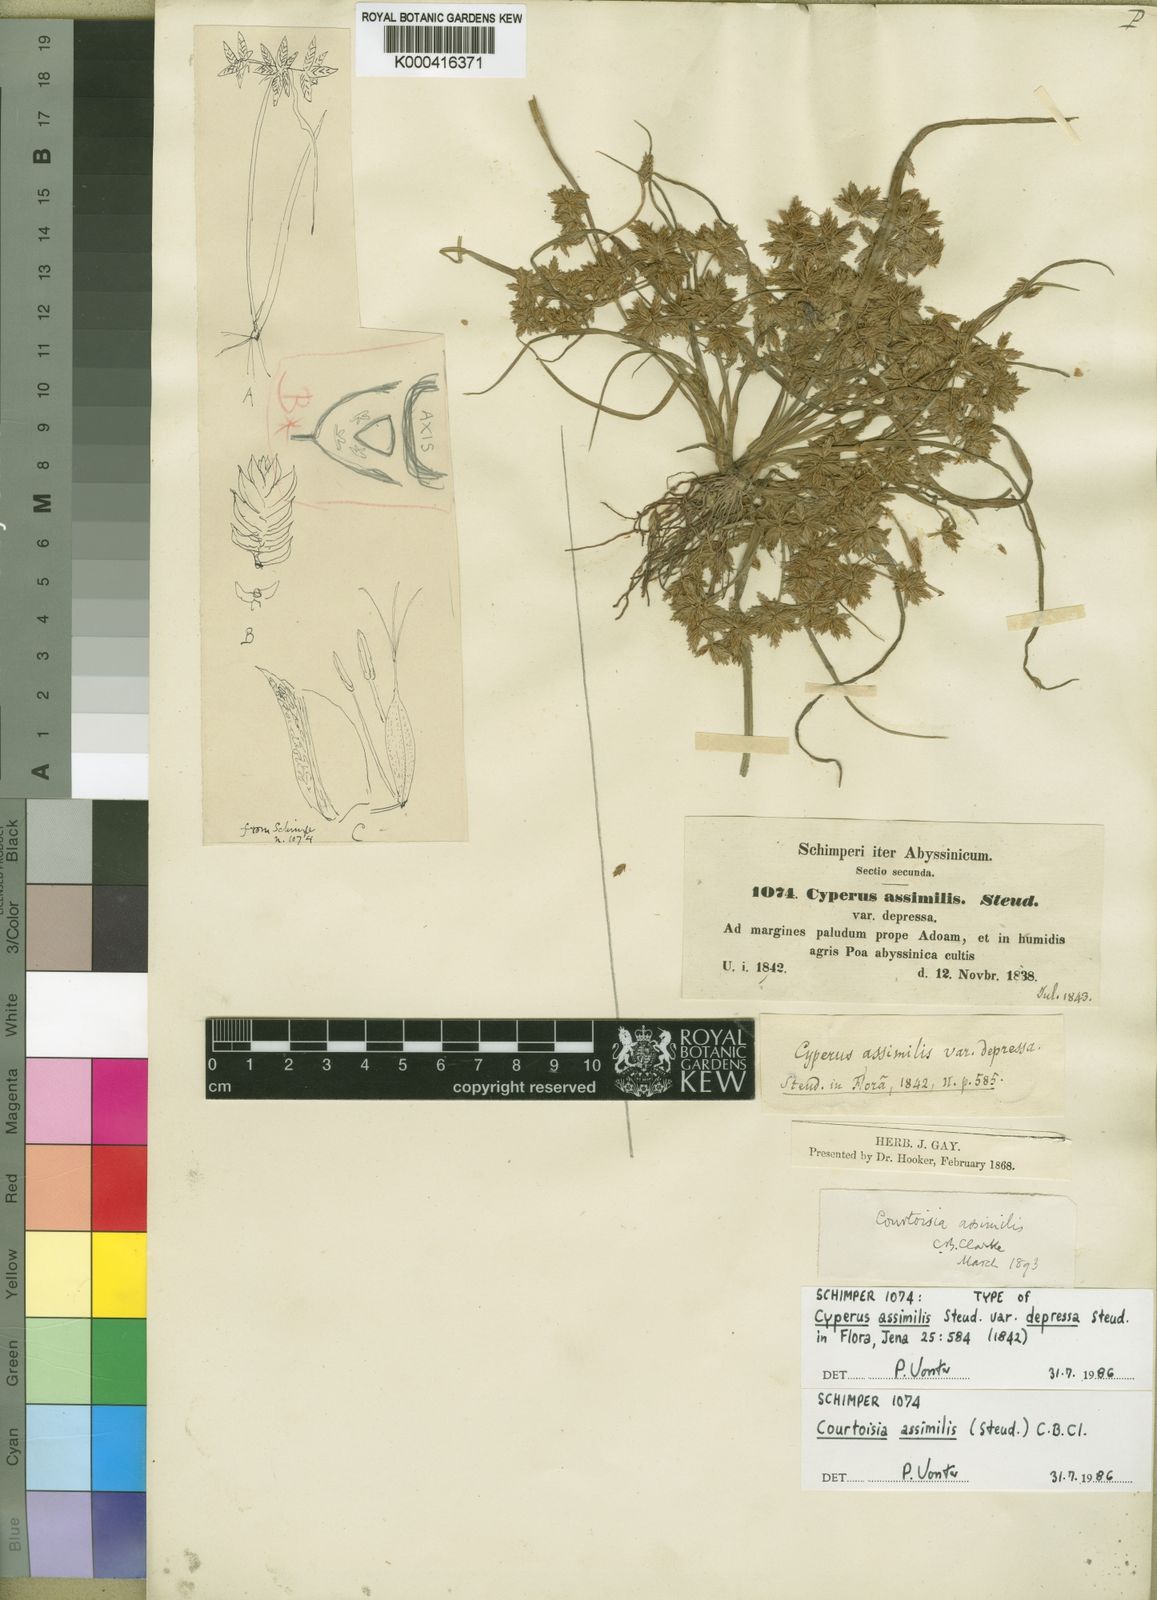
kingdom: Plantae
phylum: Tracheophyta
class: Liliopsida
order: Poales
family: Cyperaceae
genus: Cyperus
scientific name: Cyperus assimilis
